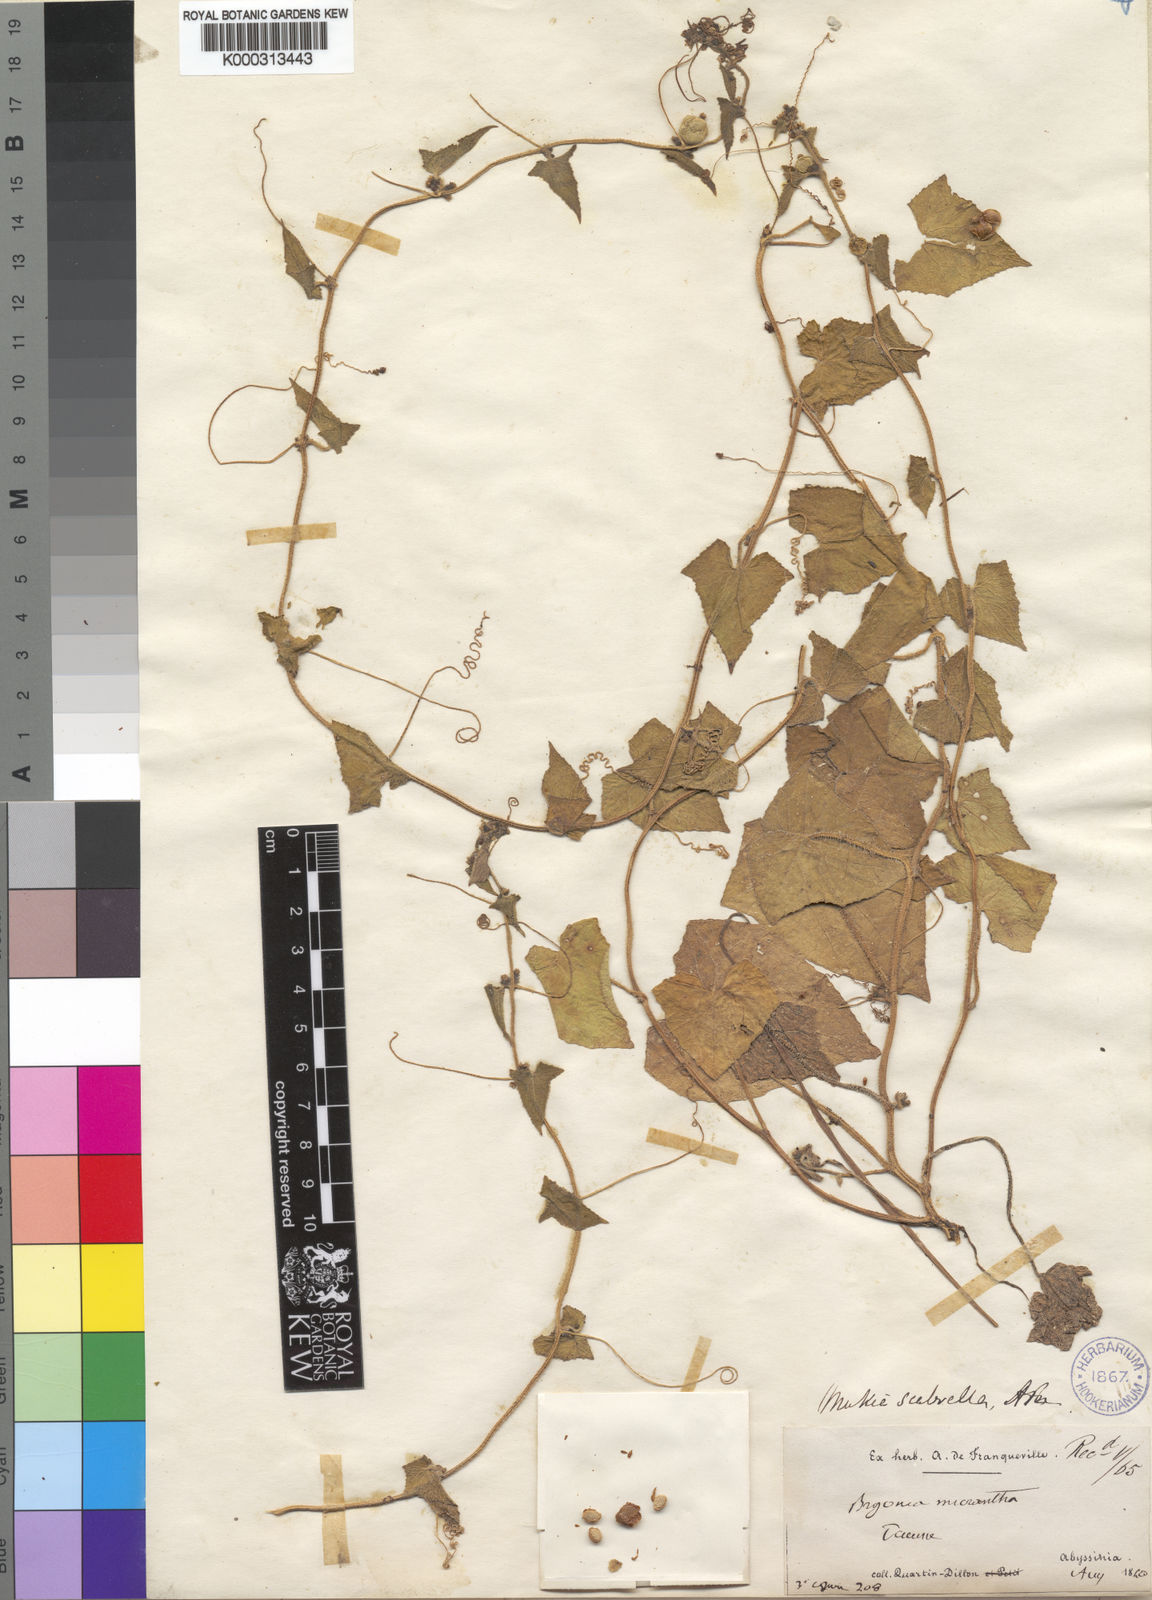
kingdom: Plantae
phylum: Tracheophyta
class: Magnoliopsida
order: Cucurbitales
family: Cucurbitaceae
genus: Cucumis
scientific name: Cucumis maderaspatanus
